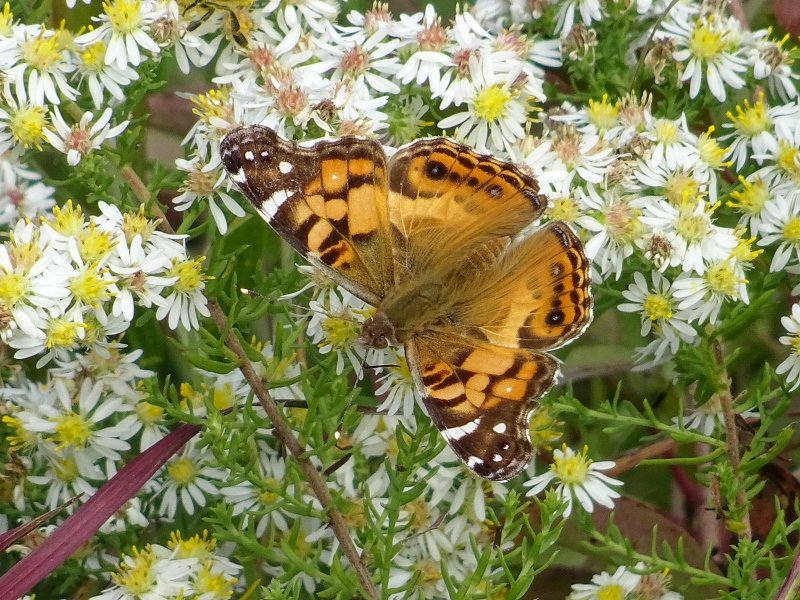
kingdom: Animalia
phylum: Arthropoda
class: Insecta
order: Lepidoptera
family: Nymphalidae
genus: Vanessa
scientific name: Vanessa virginiensis
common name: American Lady
